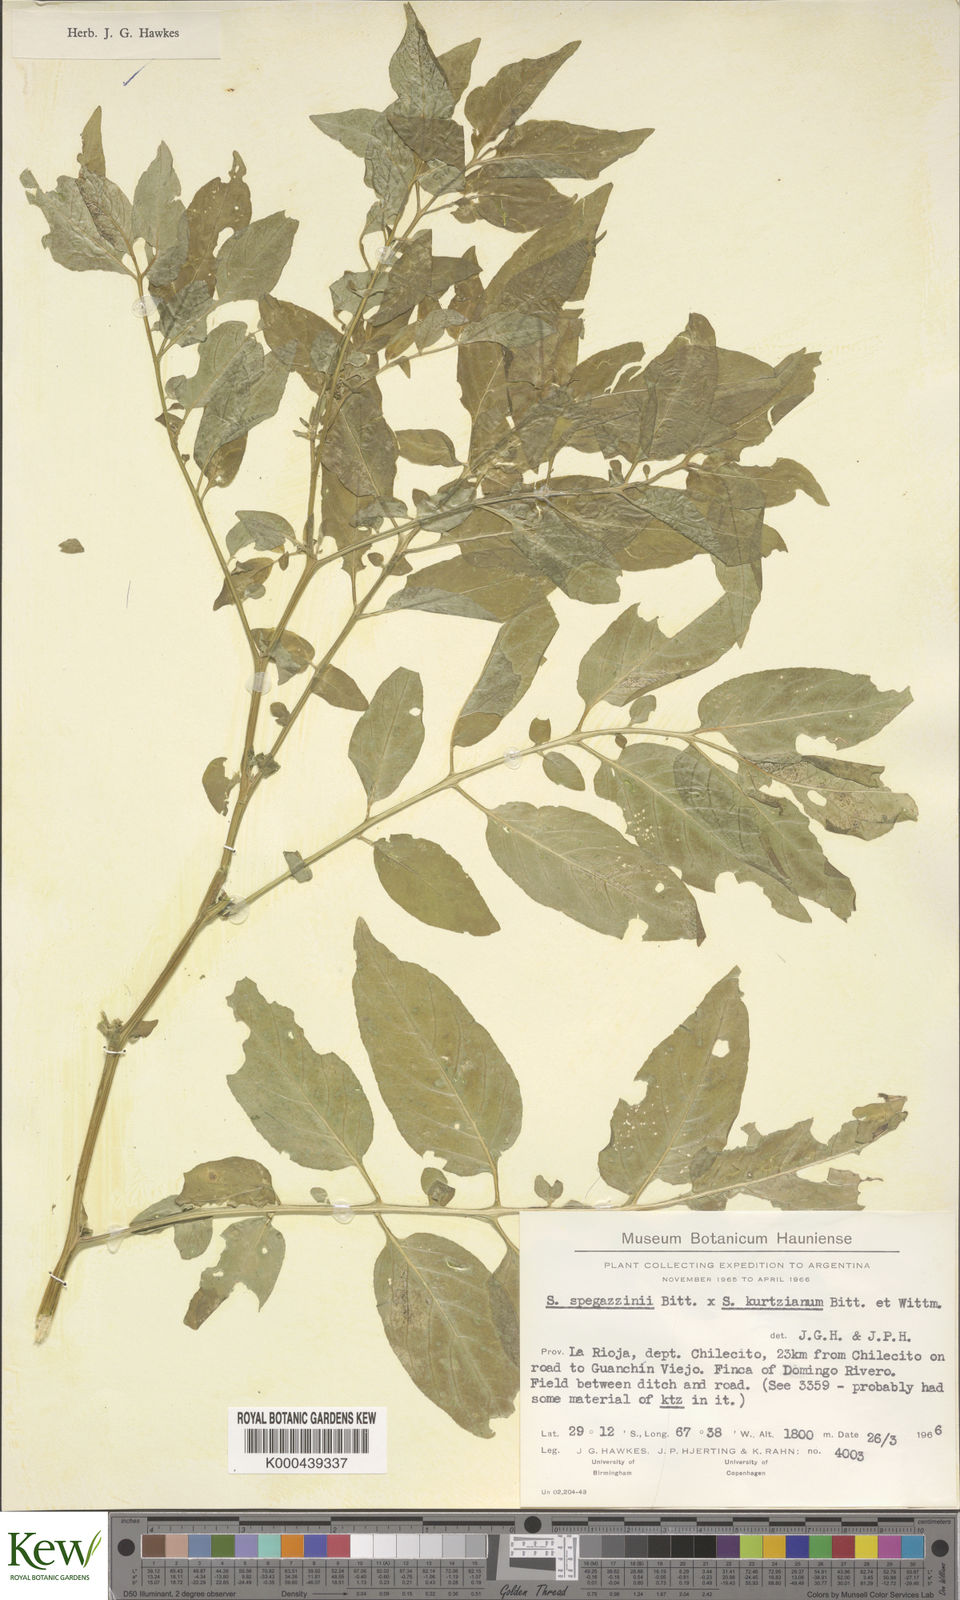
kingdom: Plantae
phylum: Tracheophyta
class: Magnoliopsida
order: Solanales
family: Solanaceae
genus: Solanum
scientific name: Solanum brevicaule
